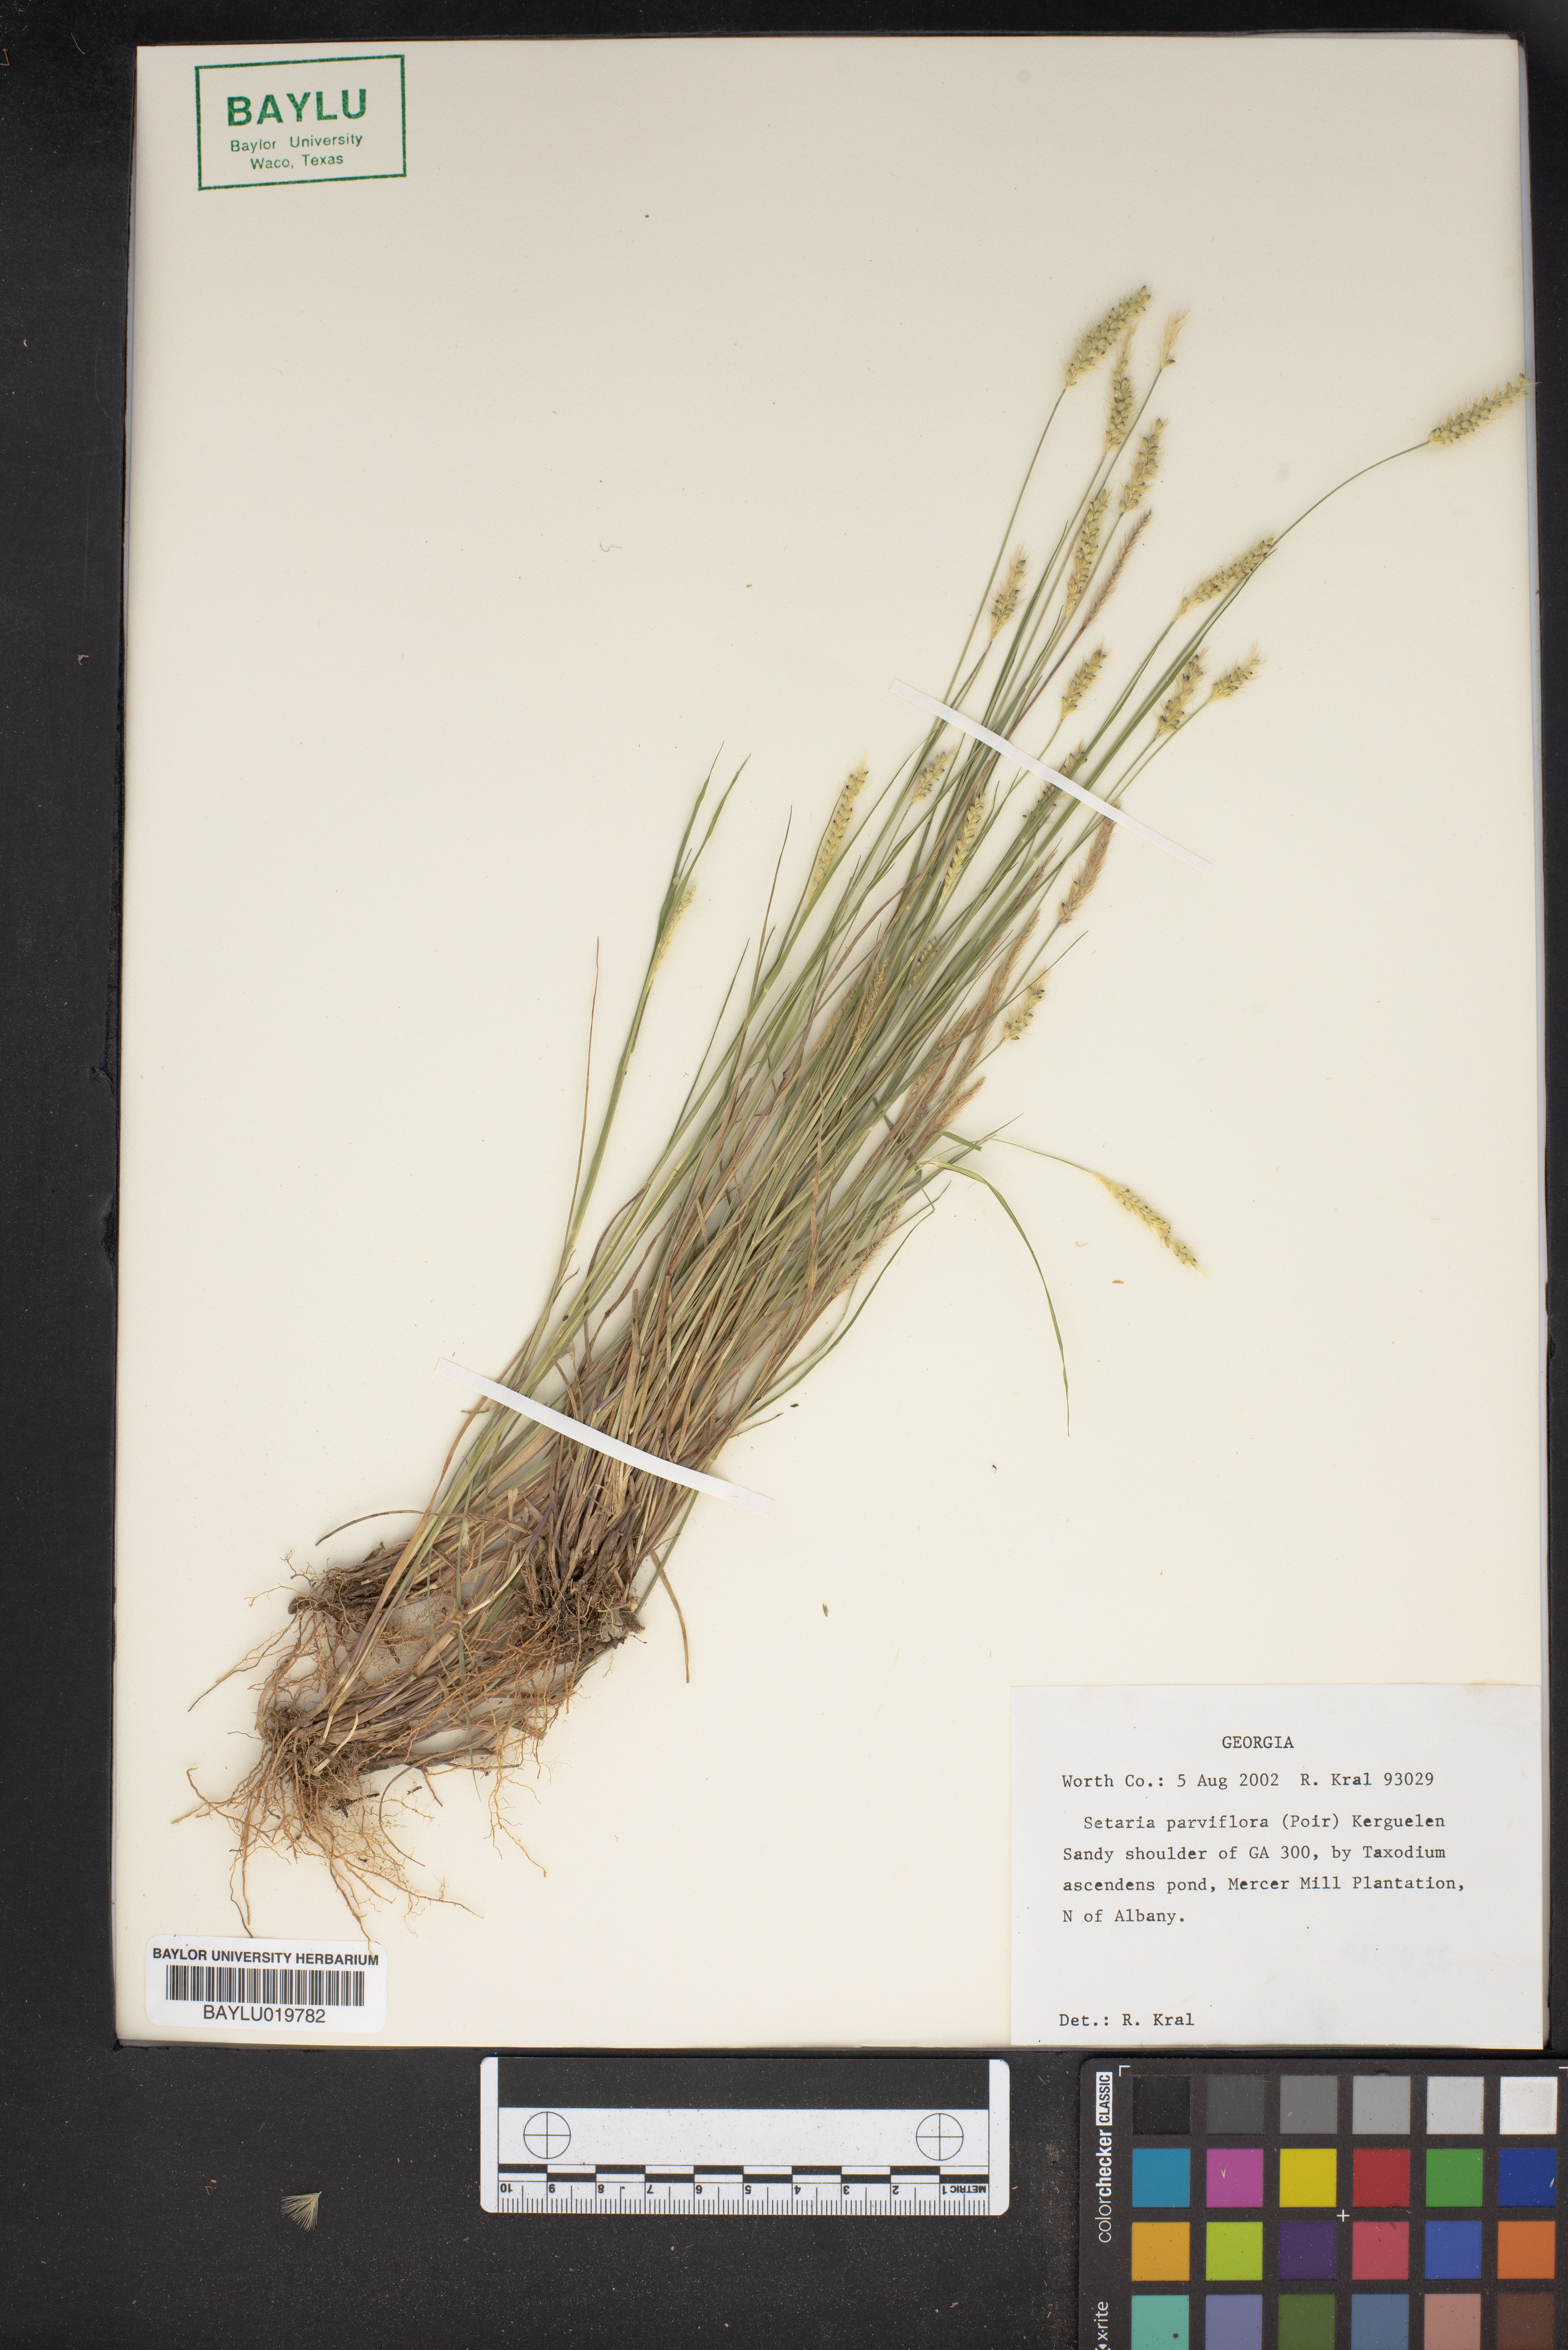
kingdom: Plantae
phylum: Tracheophyta
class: Liliopsida
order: Poales
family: Poaceae
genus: Setaria
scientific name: Setaria parviflora
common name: Knotroot bristle-grass
